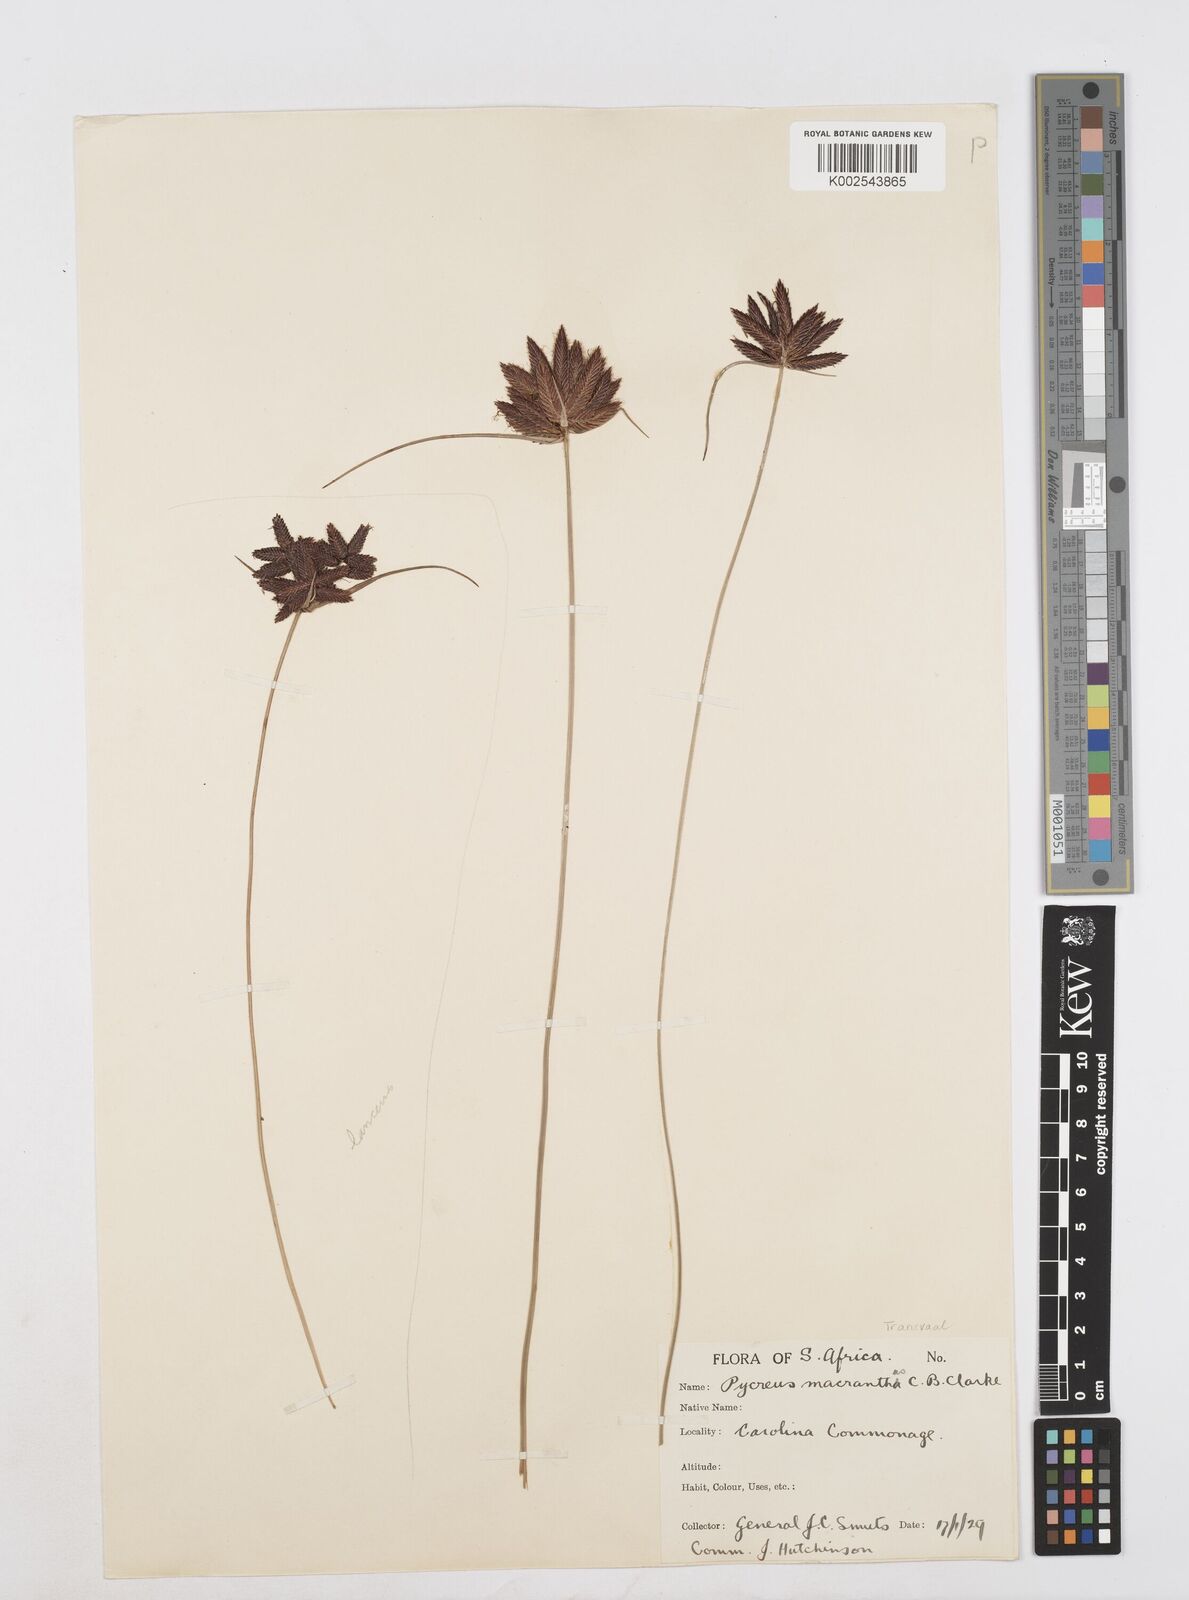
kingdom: Plantae
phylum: Tracheophyta
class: Liliopsida
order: Poales
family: Cyperaceae
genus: Cyperus
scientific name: Cyperus nigricans
